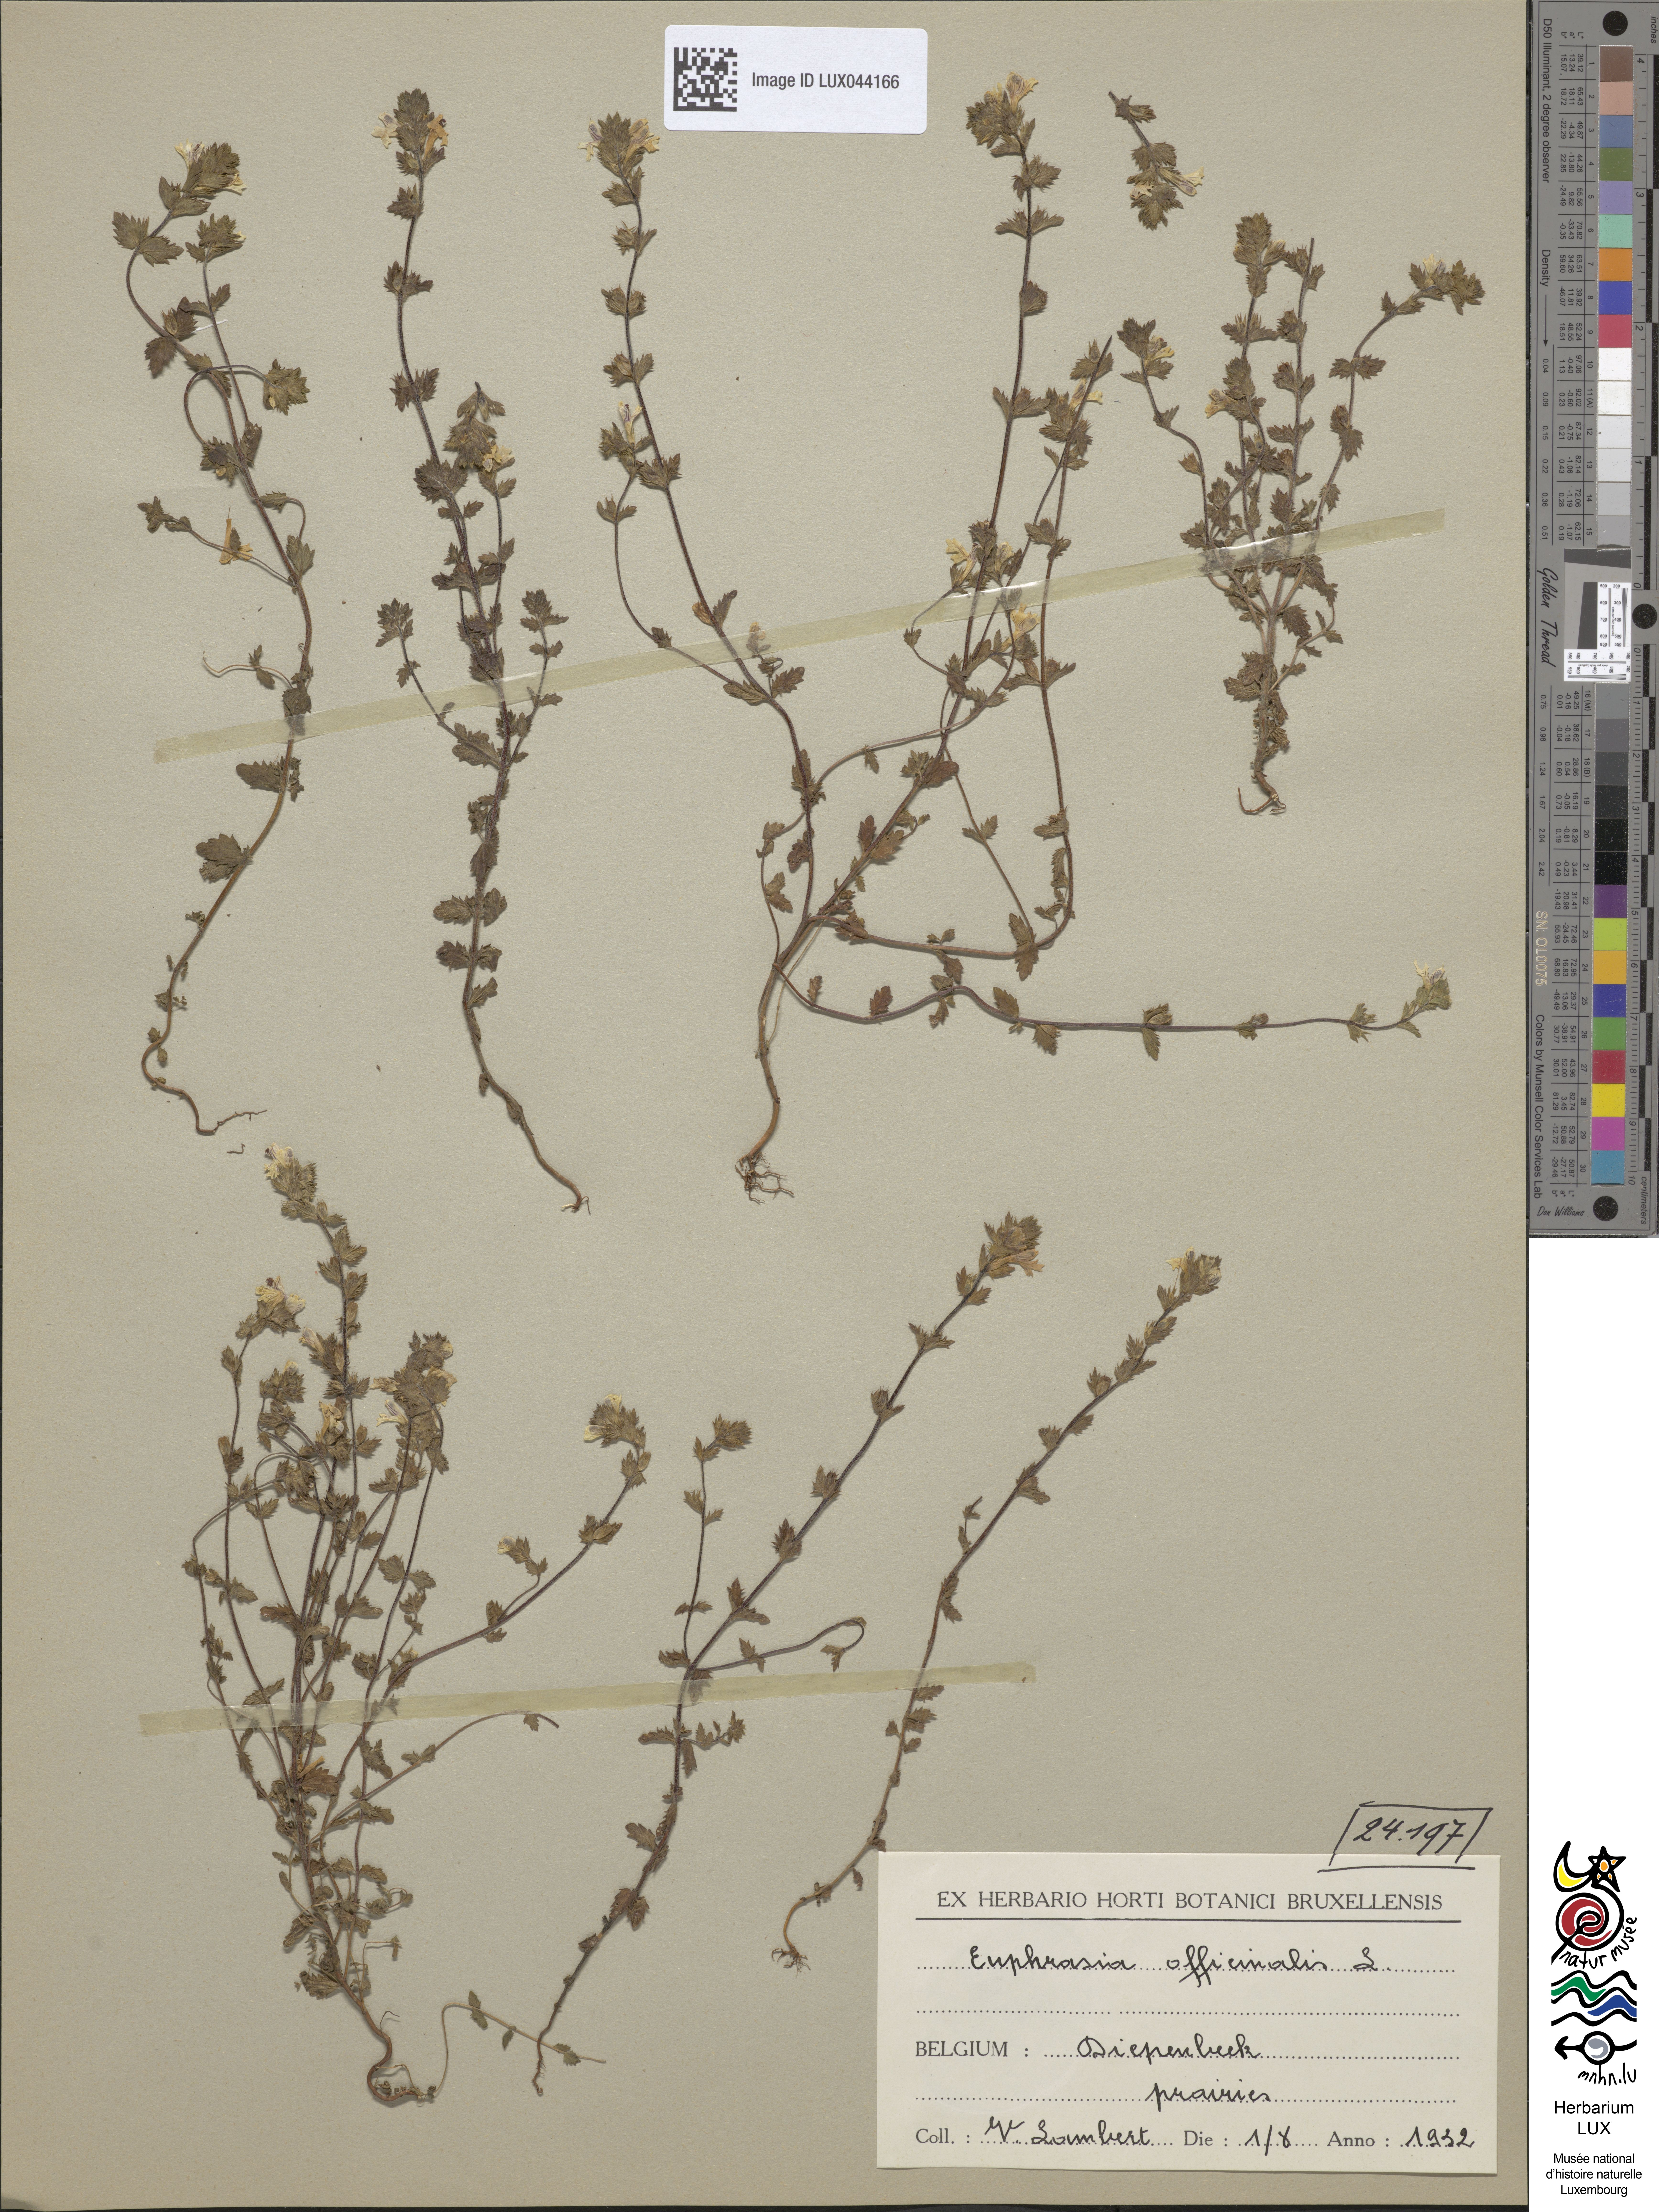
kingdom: Plantae
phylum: Tracheophyta
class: Magnoliopsida
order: Lamiales
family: Orobanchaceae
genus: Euphrasia
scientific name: Euphrasia officinalis
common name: Eyebright
